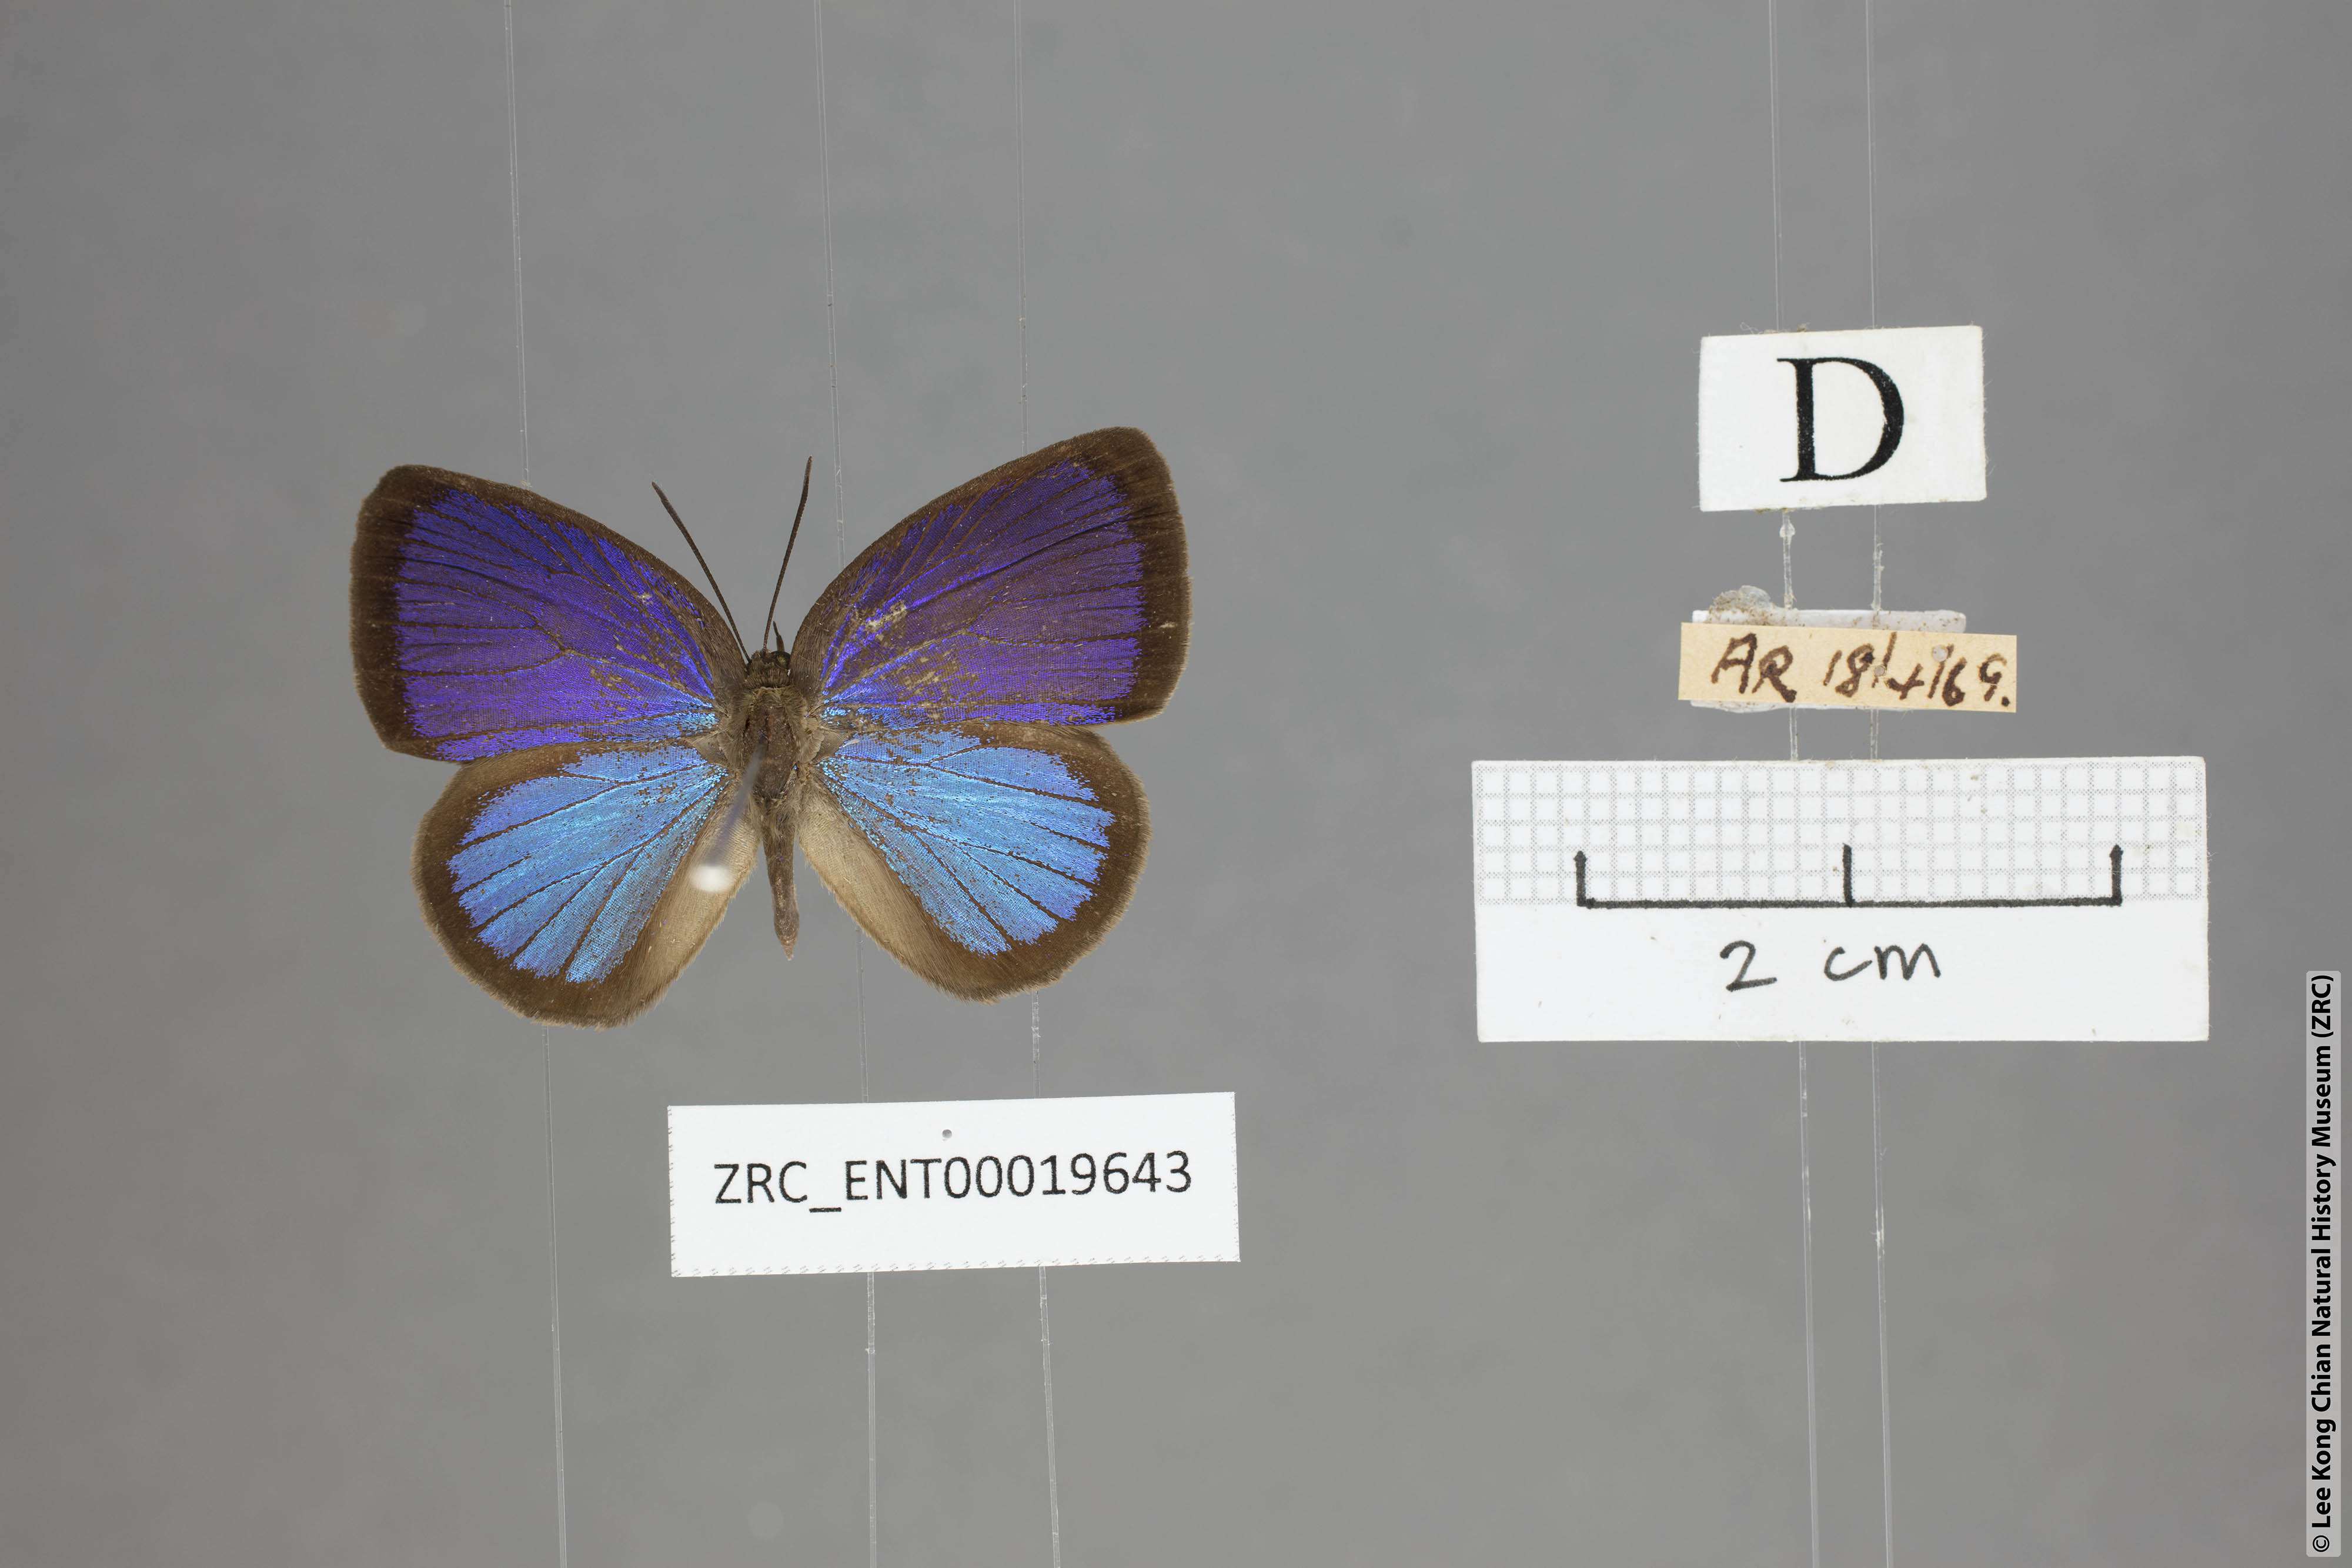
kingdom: Animalia
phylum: Arthropoda
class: Insecta
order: Lepidoptera
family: Lycaenidae
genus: Arhopala
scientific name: Arhopala metamuta
